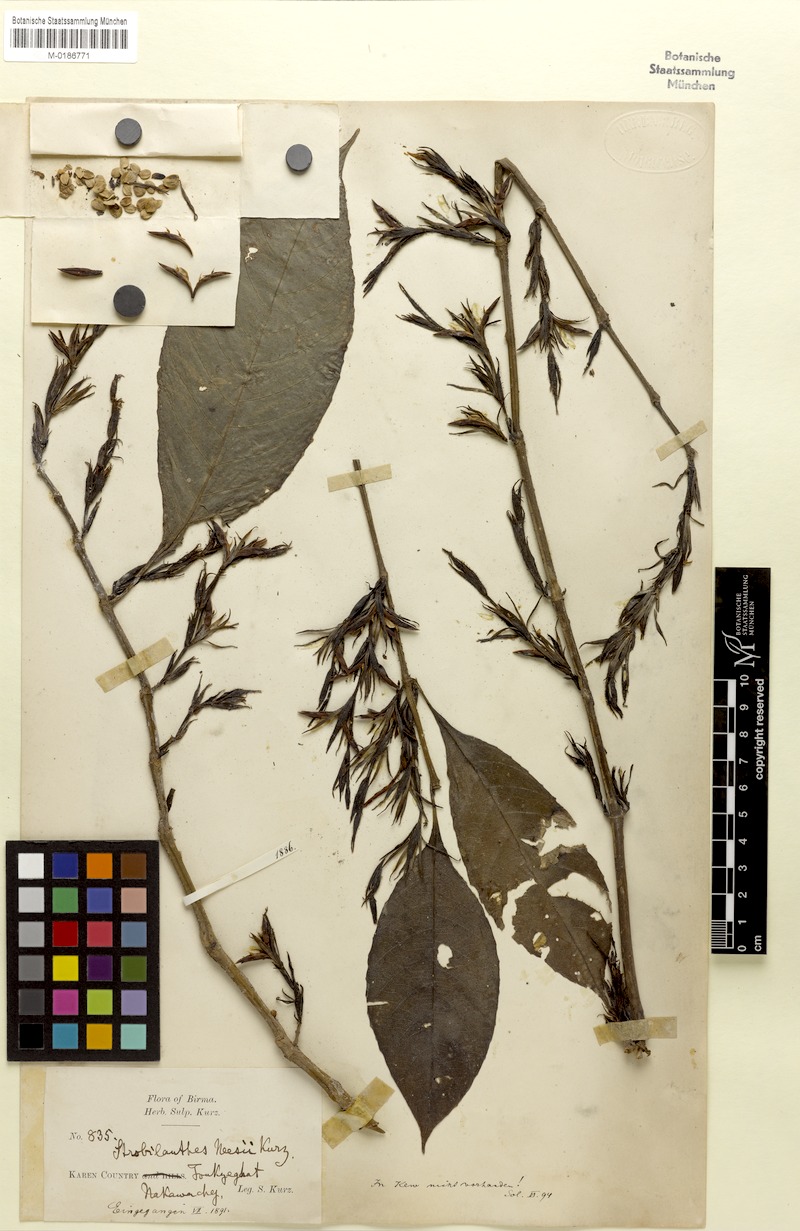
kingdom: Plantae
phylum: Tracheophyta
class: Magnoliopsida
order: Lamiales
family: Acanthaceae
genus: Strobilanthes
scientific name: Strobilanthes fimbriata
